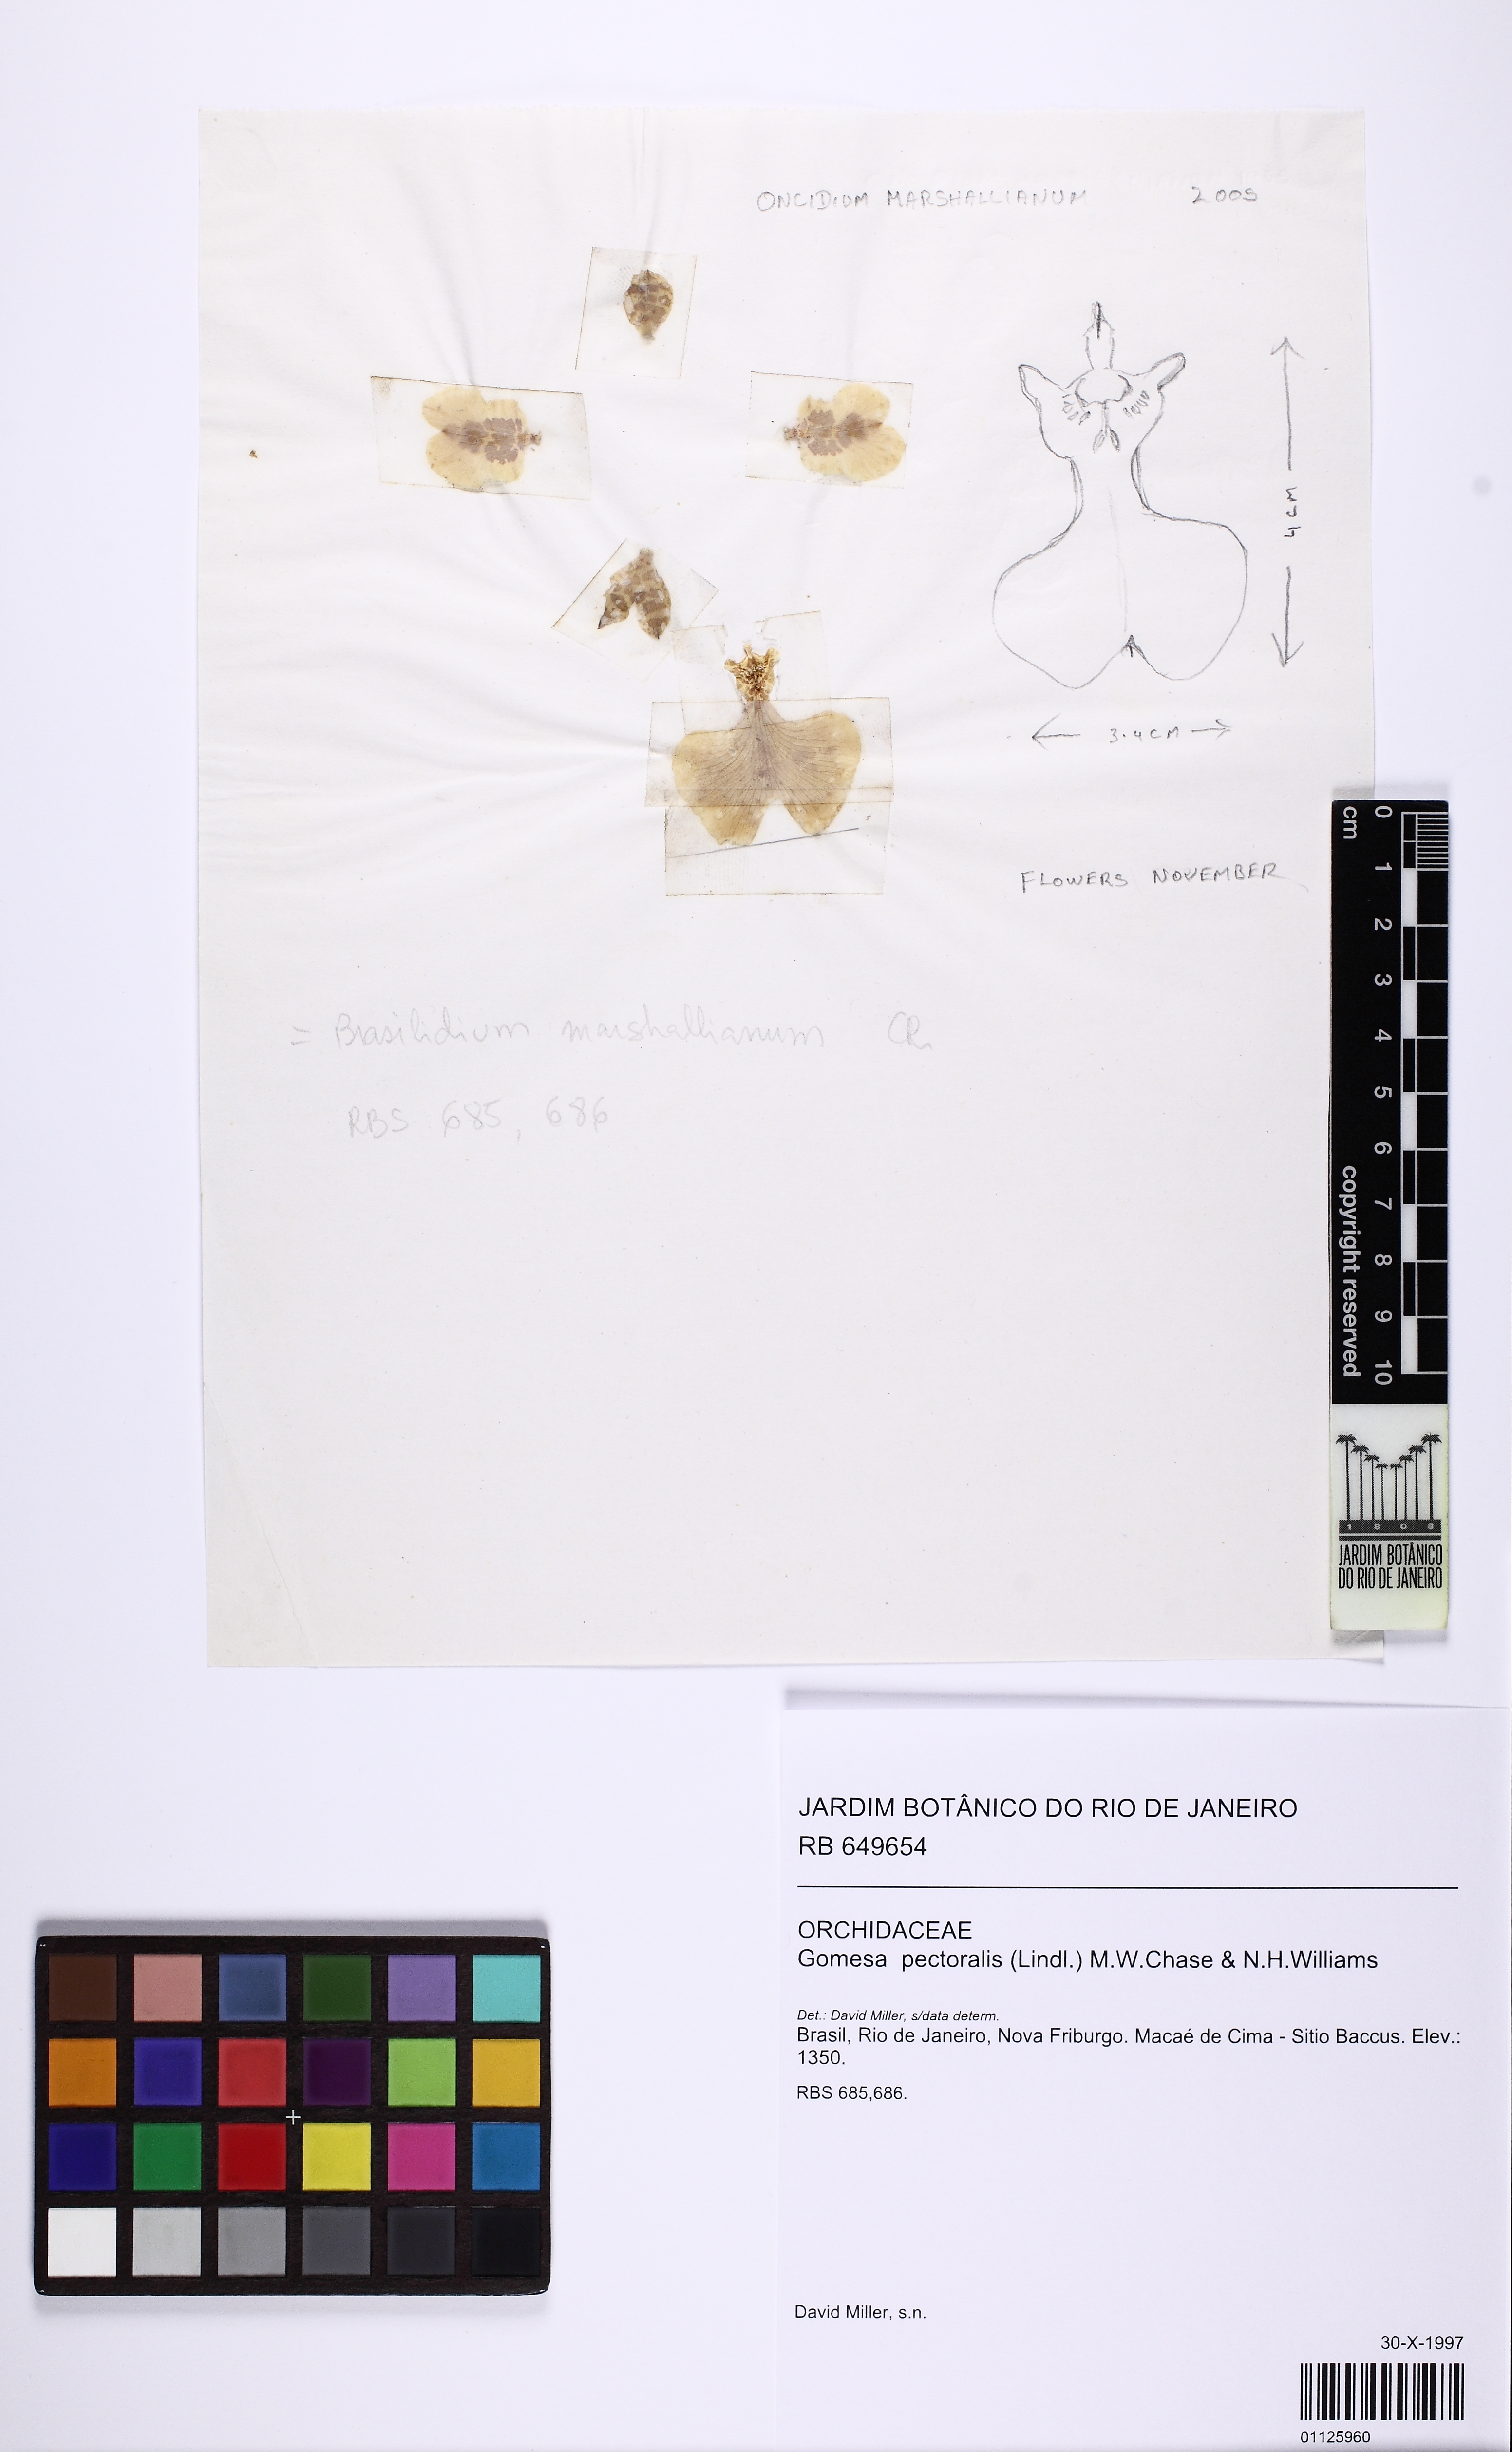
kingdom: Plantae
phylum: Tracheophyta
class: Liliopsida
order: Asparagales
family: Orchidaceae
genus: Gomesa
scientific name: Gomesa pectoralis
